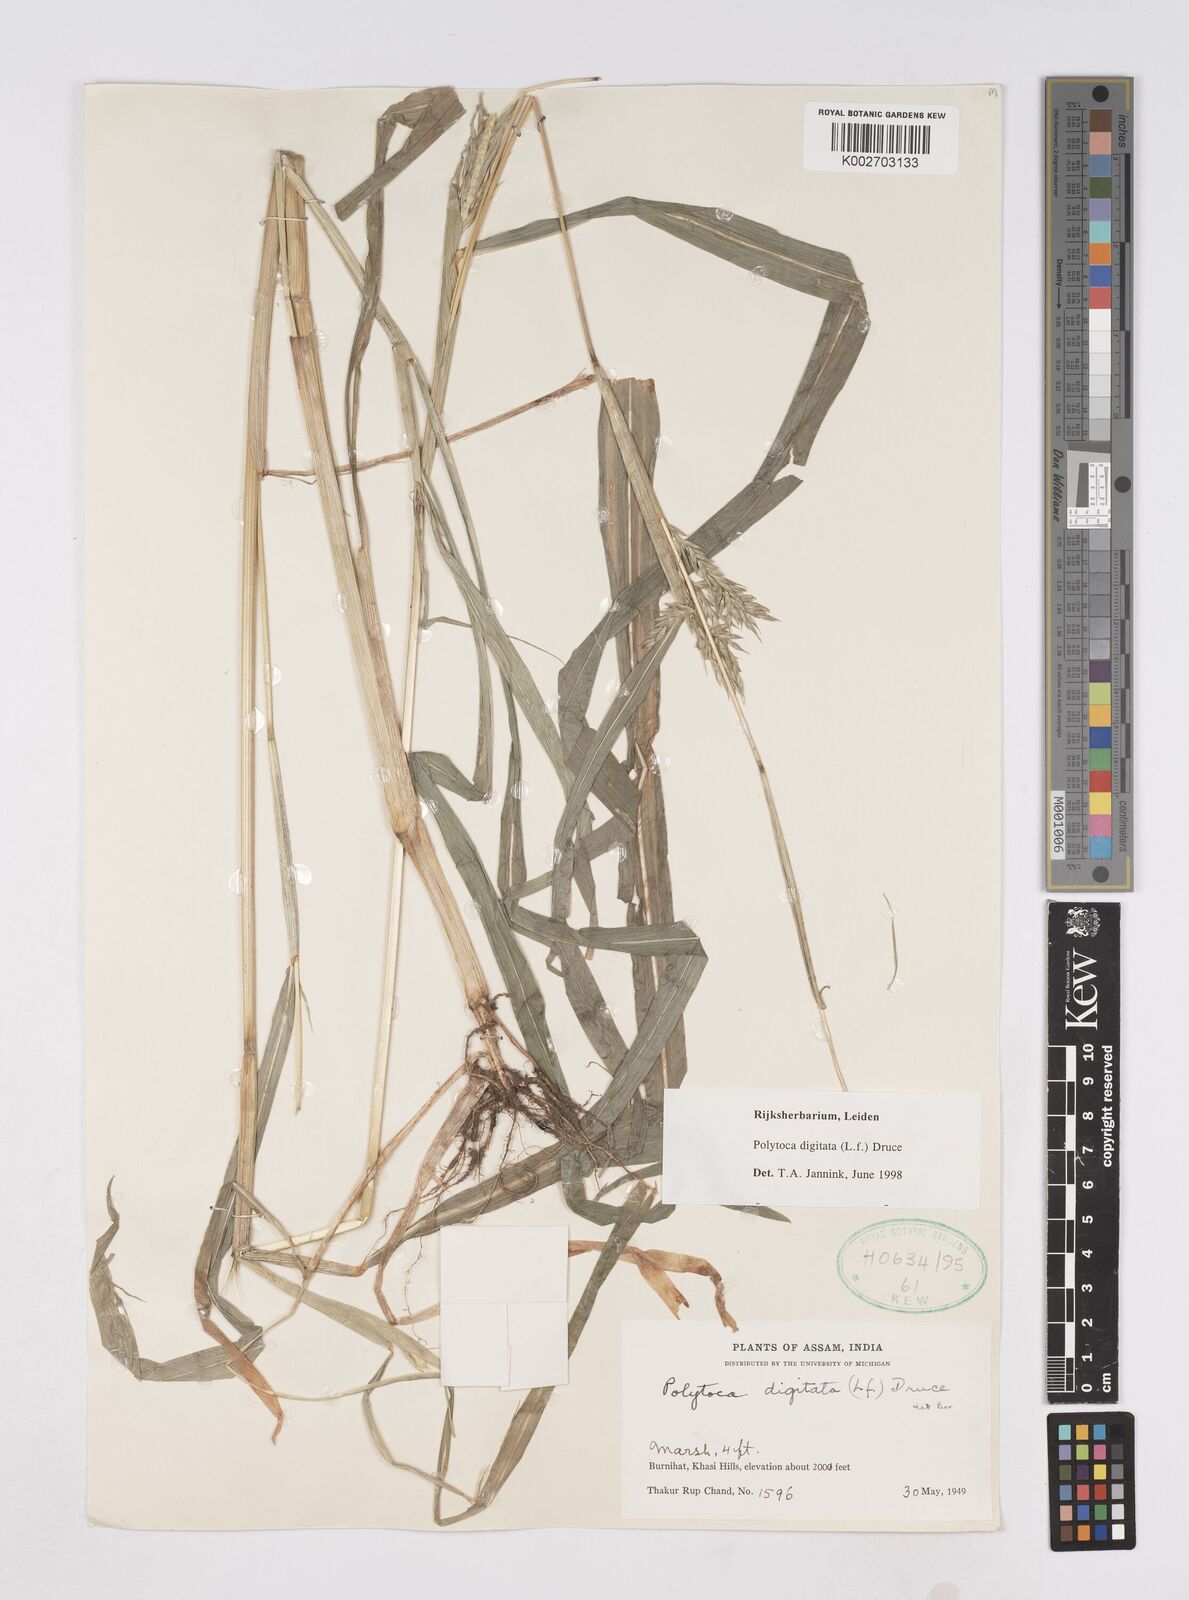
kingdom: Plantae
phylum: Tracheophyta
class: Liliopsida
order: Poales
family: Poaceae
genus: Polytoca
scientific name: Polytoca digitata
